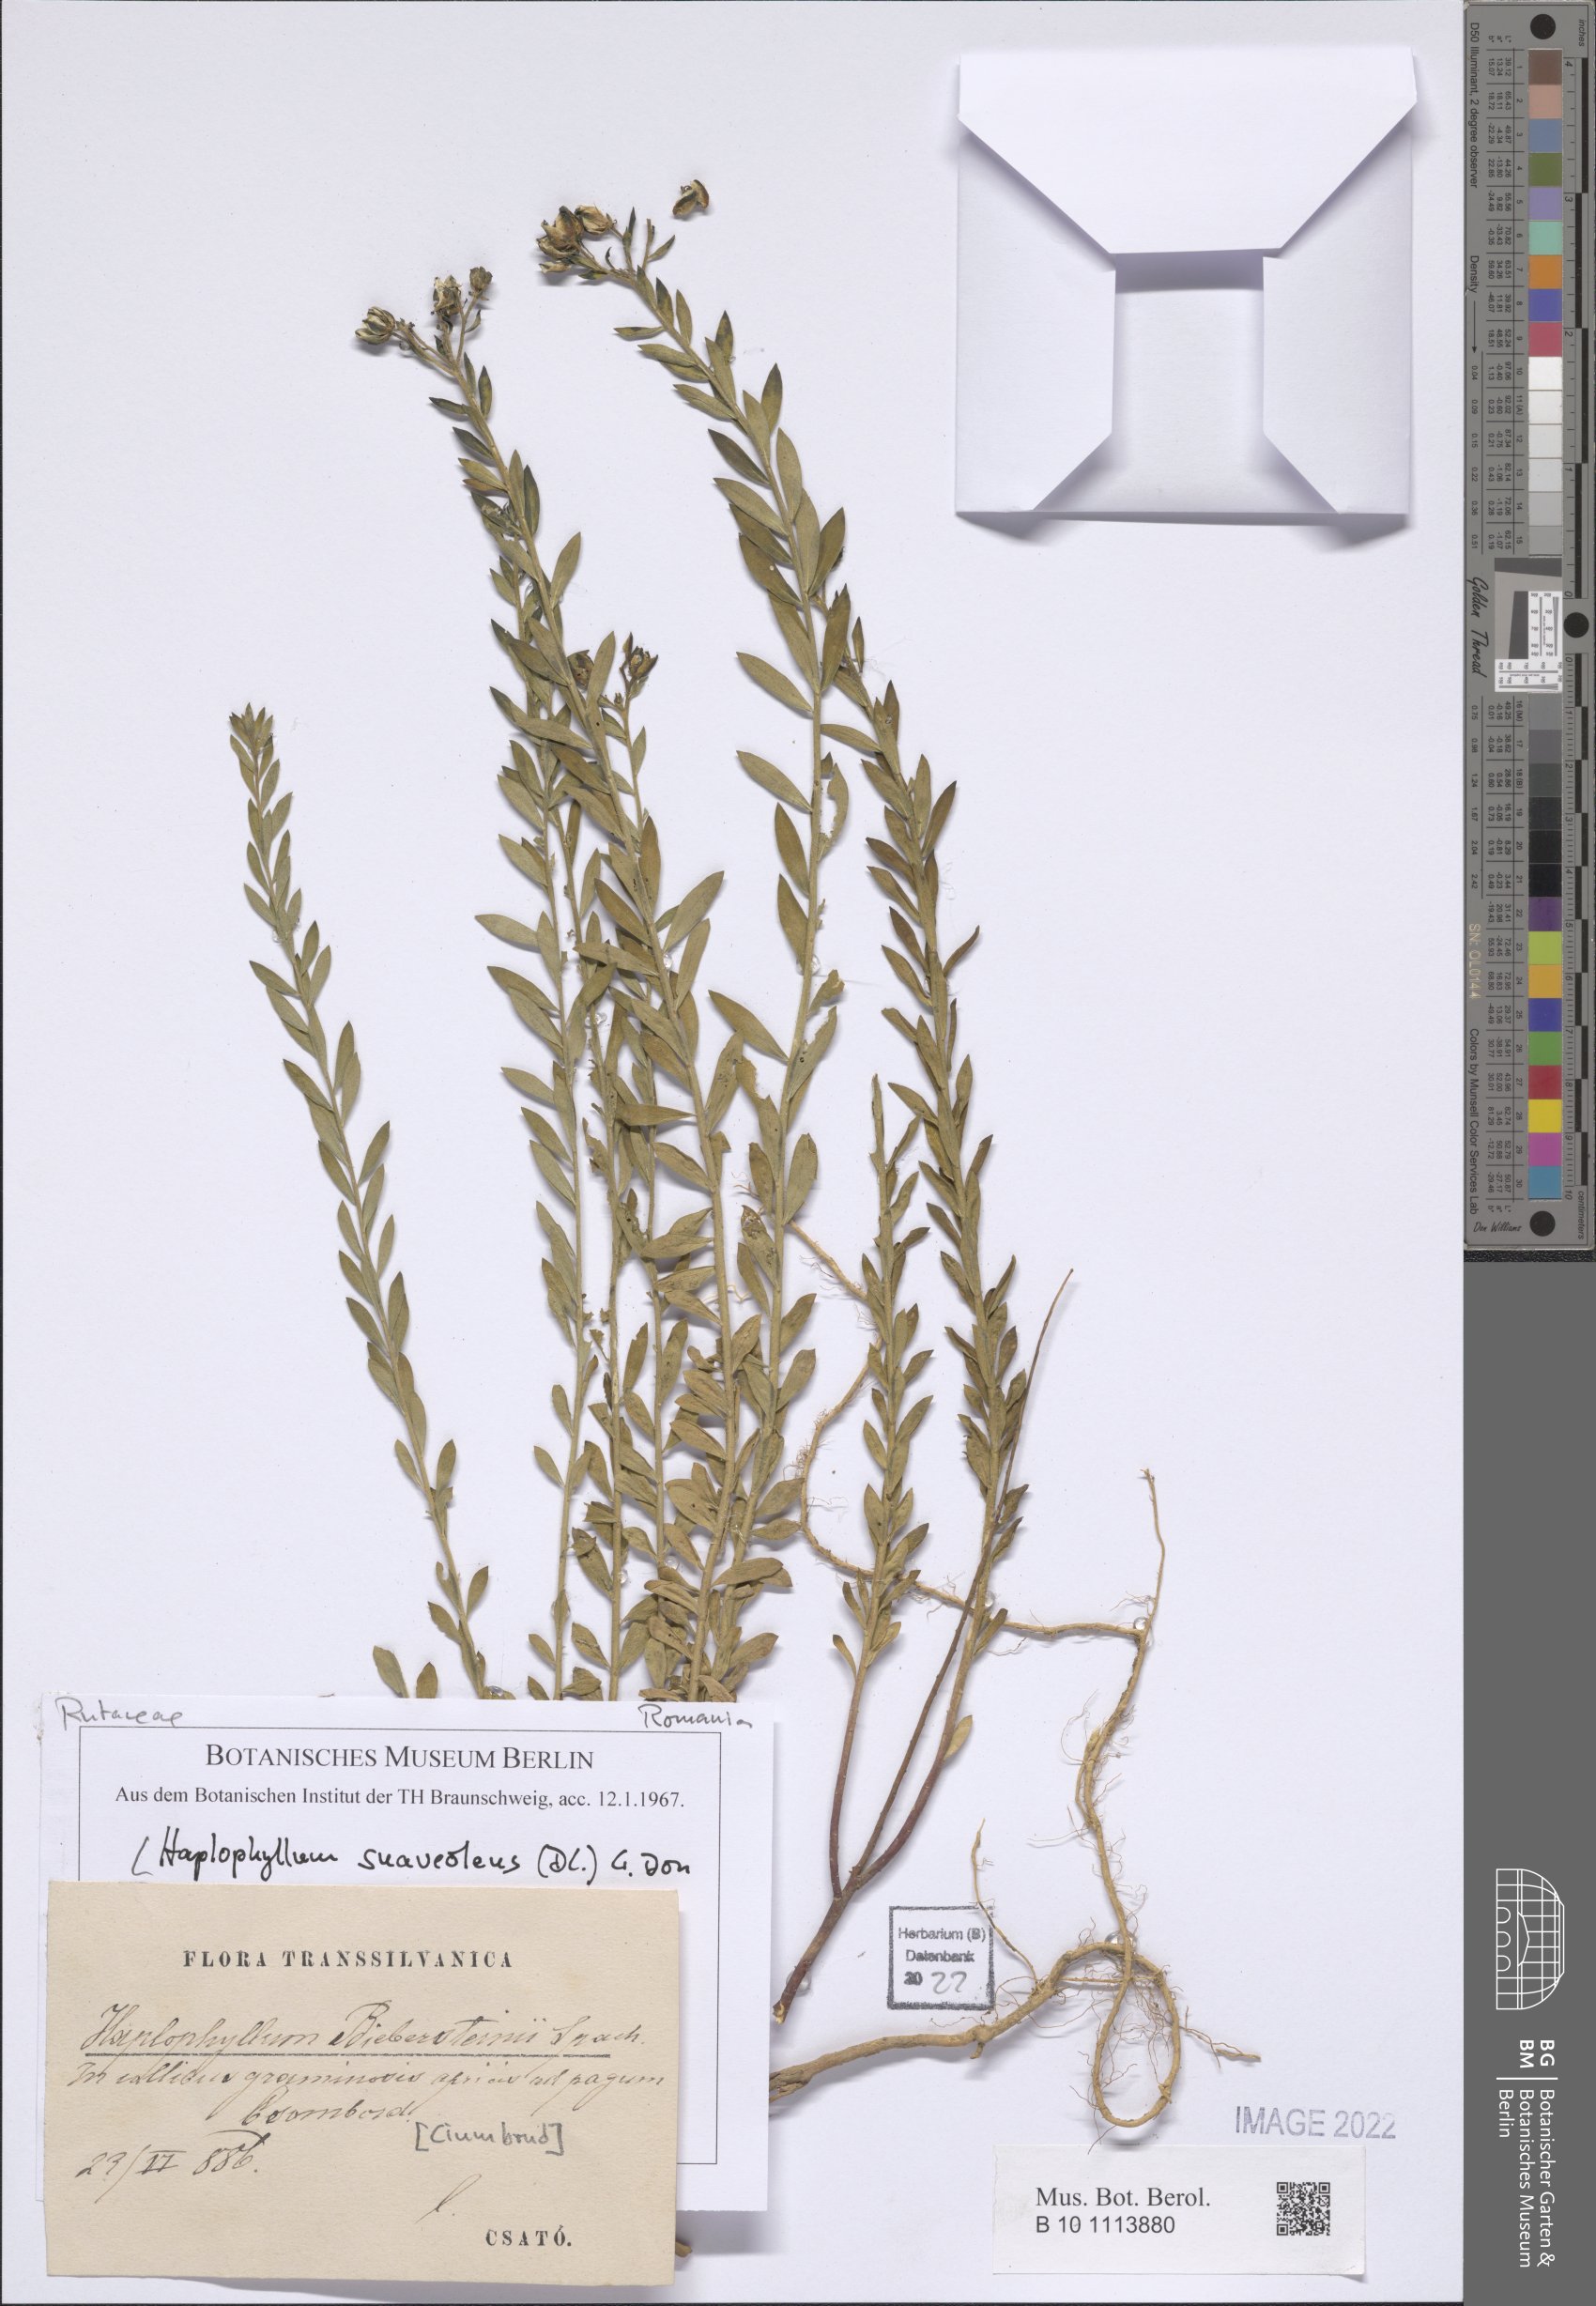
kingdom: Plantae
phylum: Tracheophyta
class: Magnoliopsida
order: Sapindales
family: Rutaceae
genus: Haplophyllum
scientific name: Haplophyllum suaveolens
